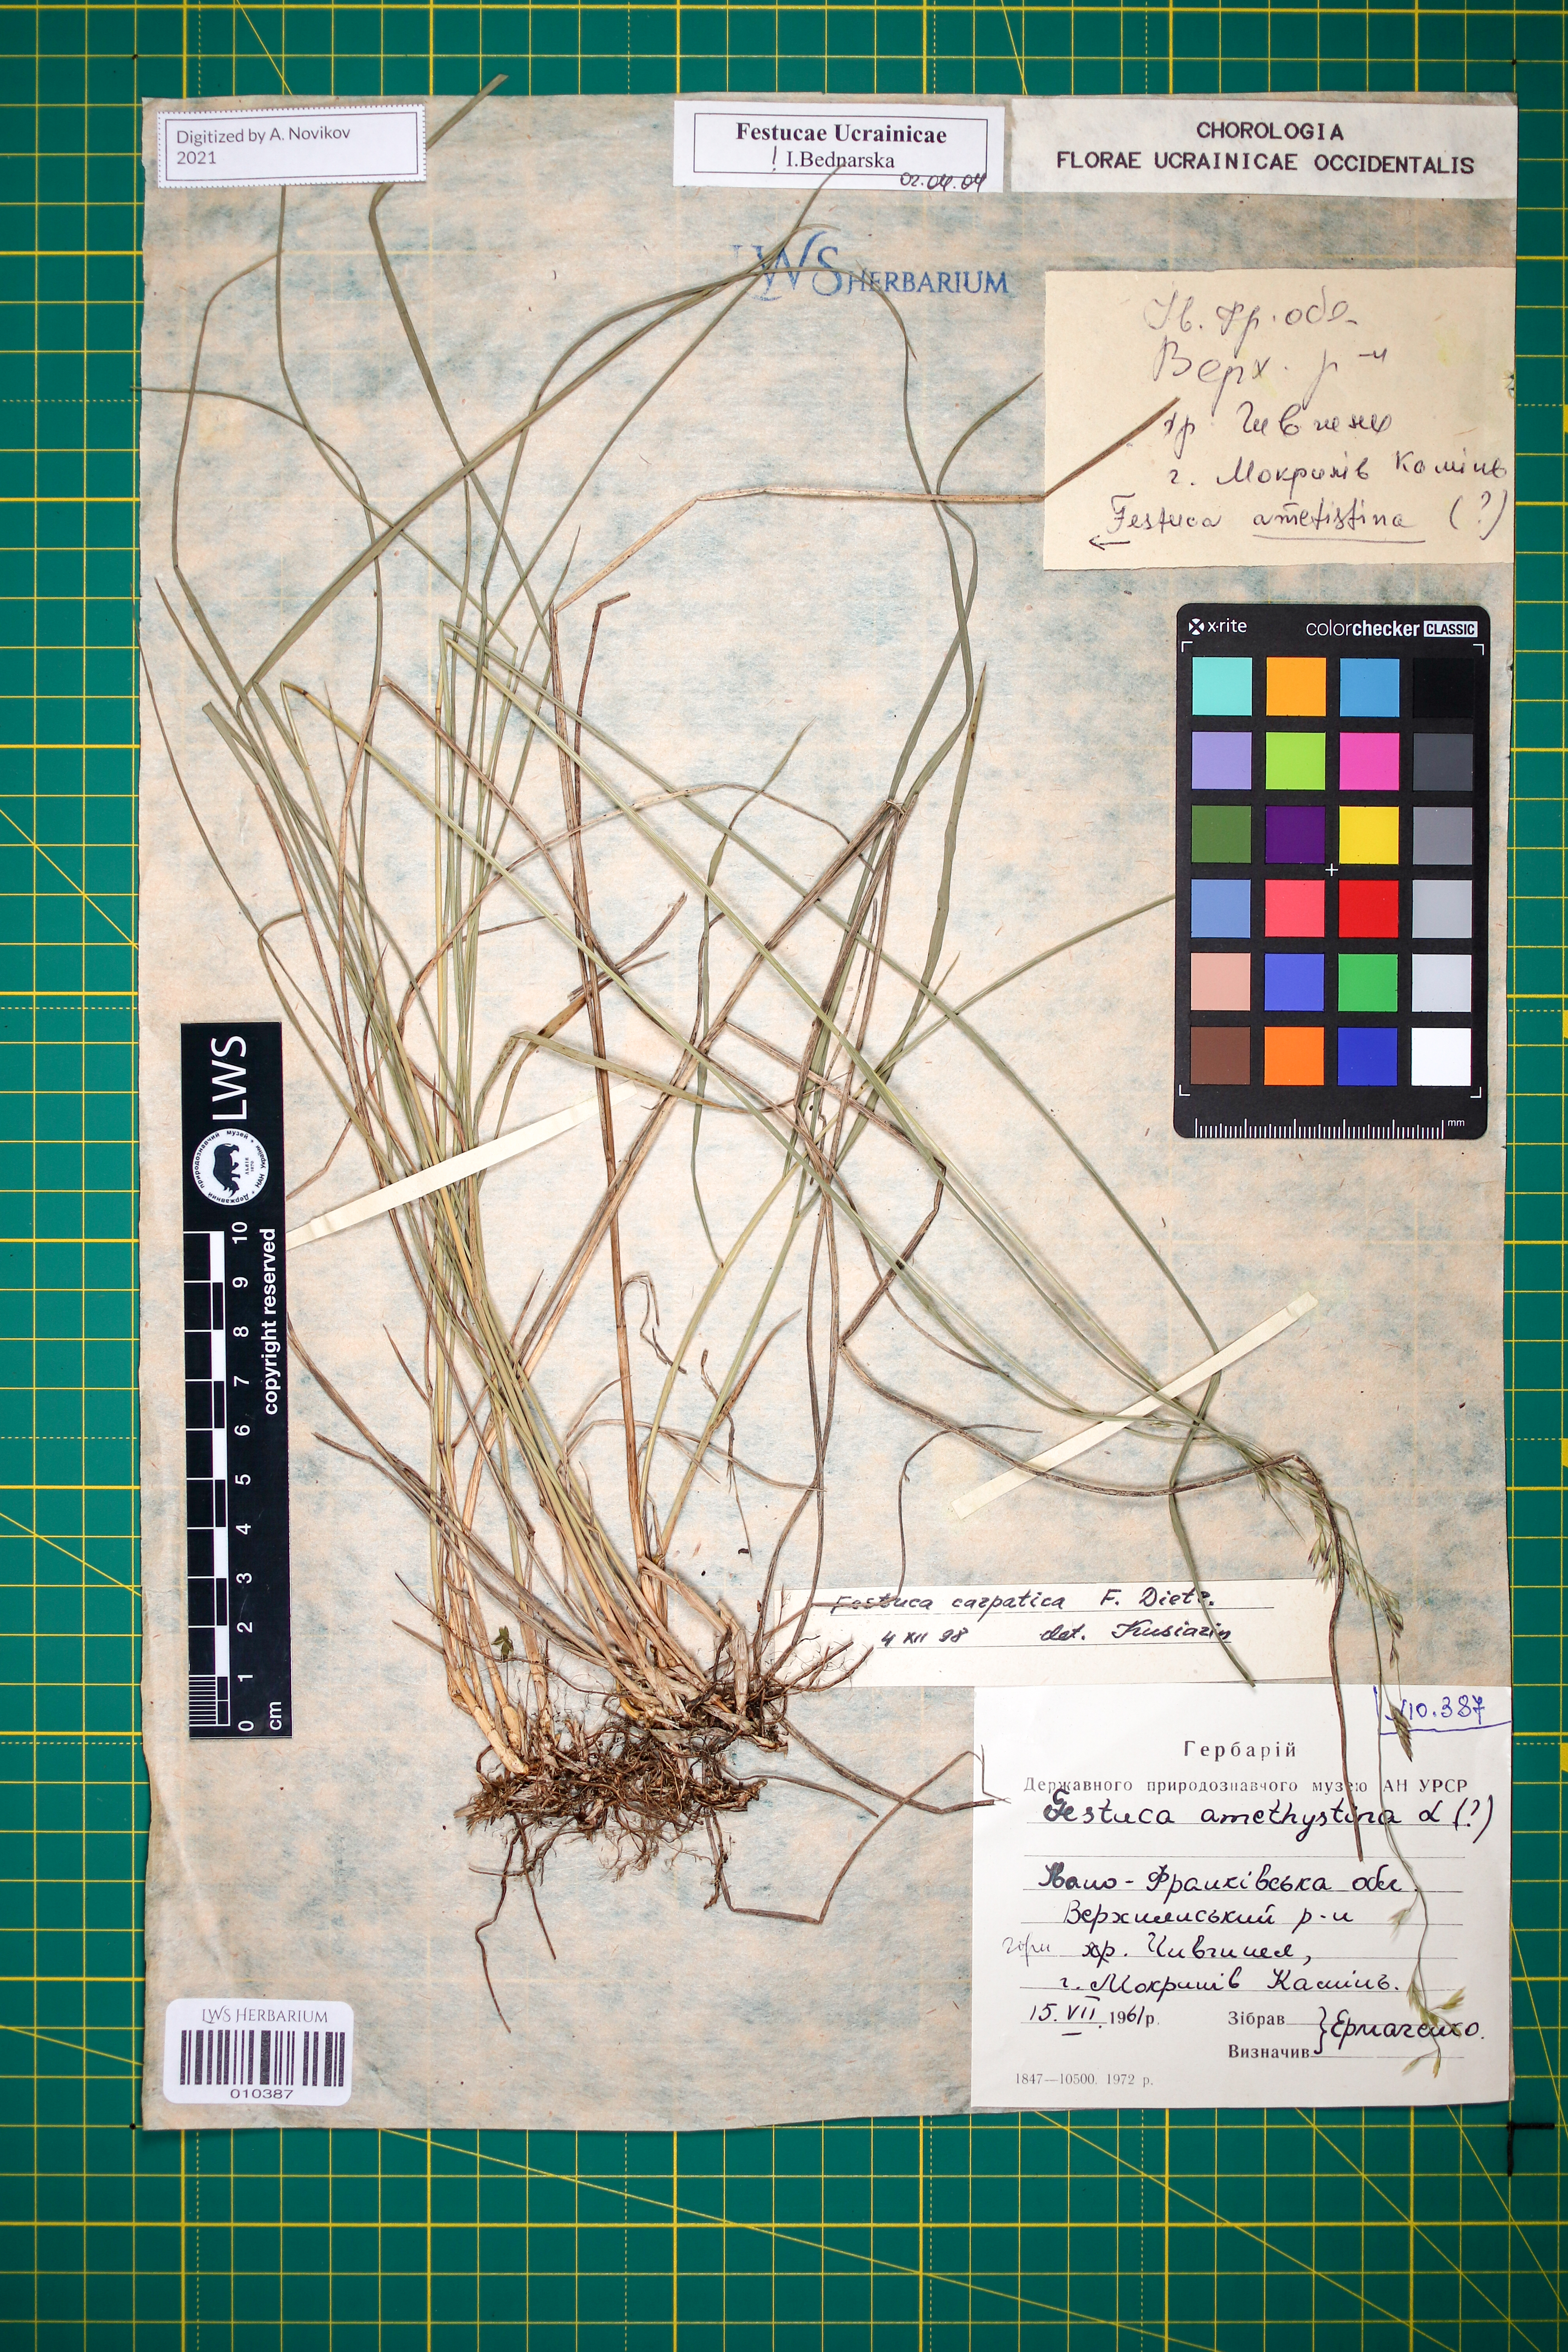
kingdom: Plantae
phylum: Tracheophyta
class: Liliopsida
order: Poales
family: Poaceae
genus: Festuca
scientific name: Festuca carpatica
